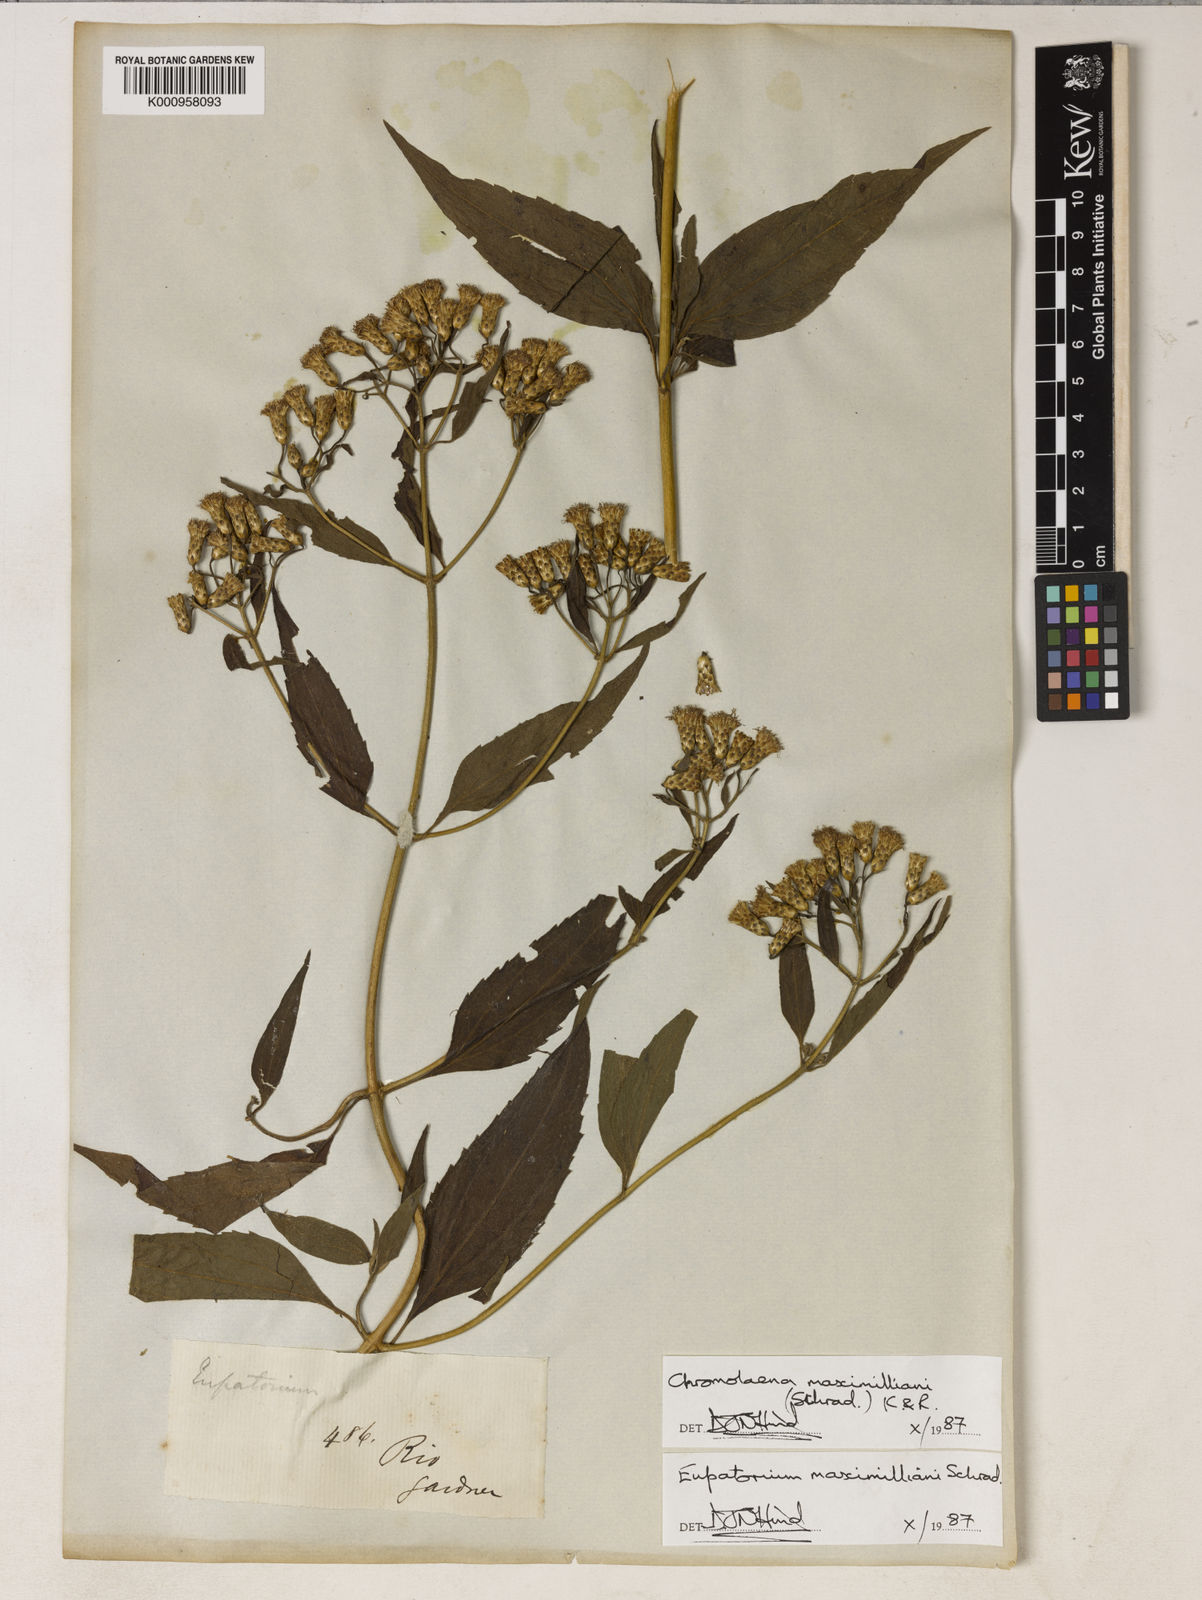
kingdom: Plantae
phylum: Tracheophyta
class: Magnoliopsida
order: Asterales
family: Asteraceae
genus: Chromolaena
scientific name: Chromolaena maximiliani
